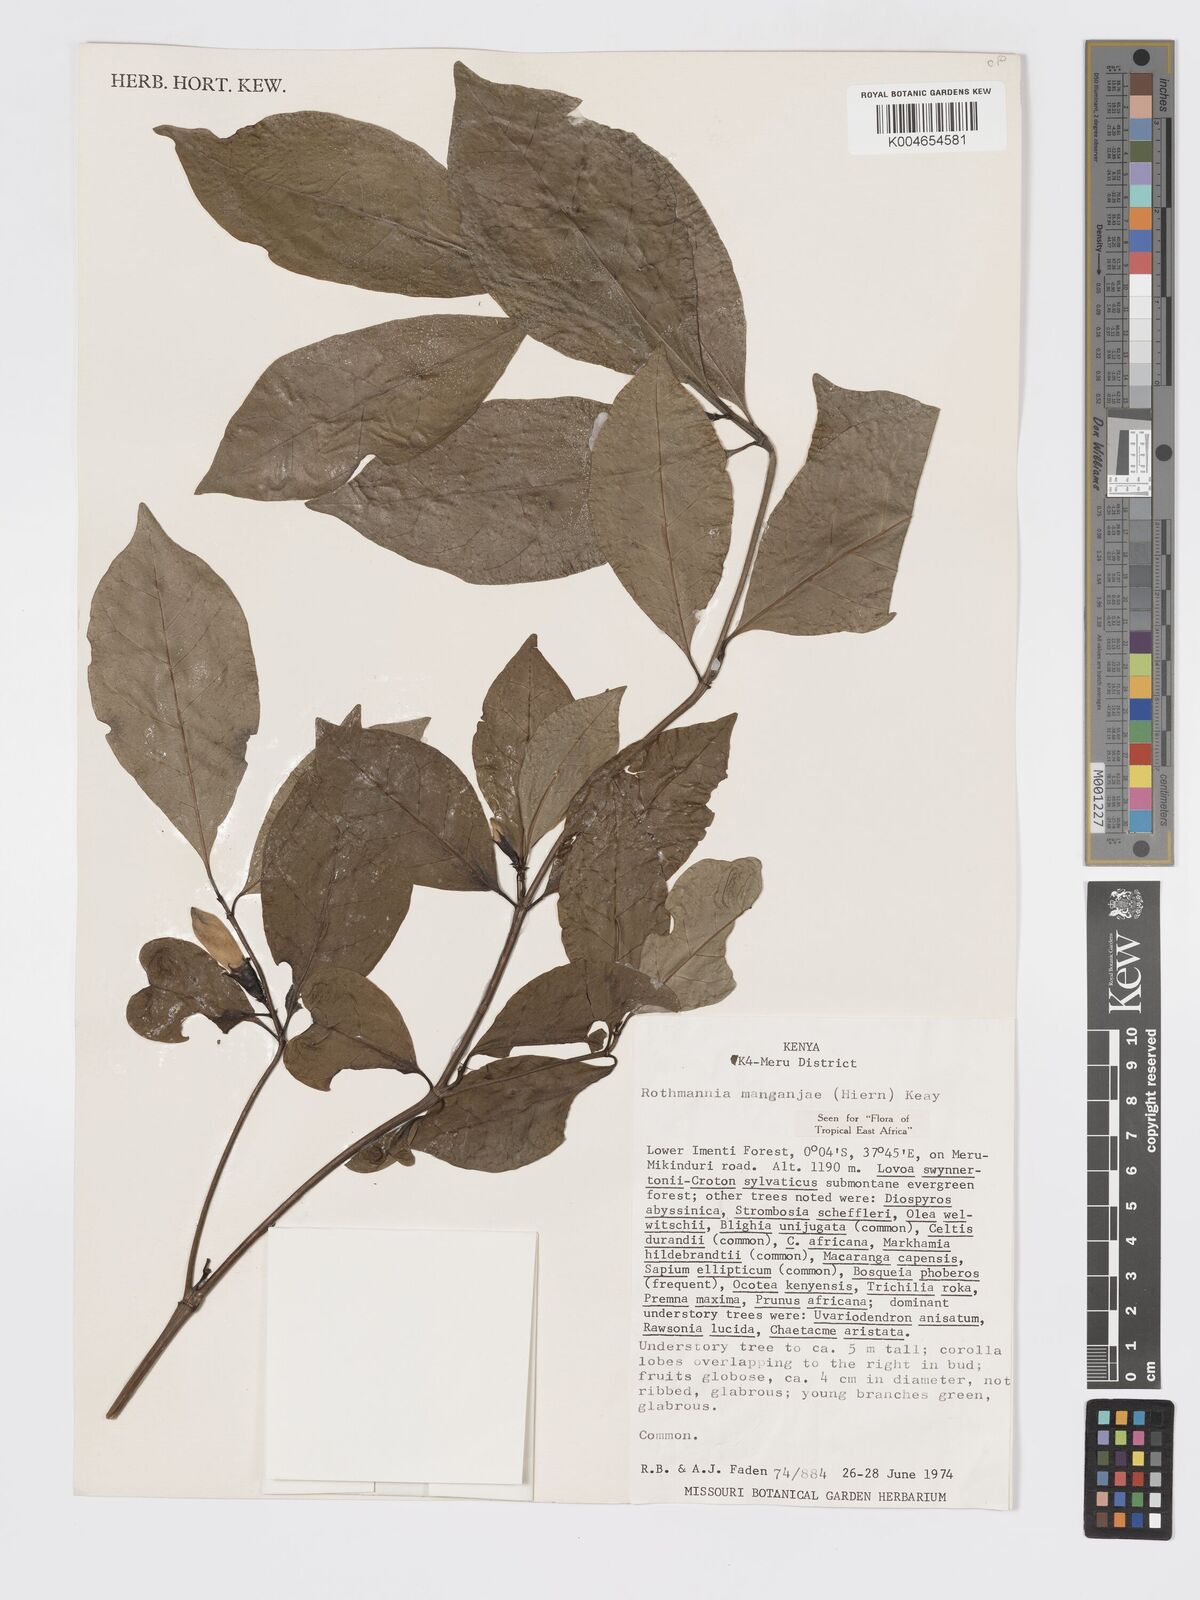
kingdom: Plantae
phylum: Tracheophyta
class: Magnoliopsida
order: Gentianales
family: Rubiaceae
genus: Rothmannia
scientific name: Rothmannia manganjae
